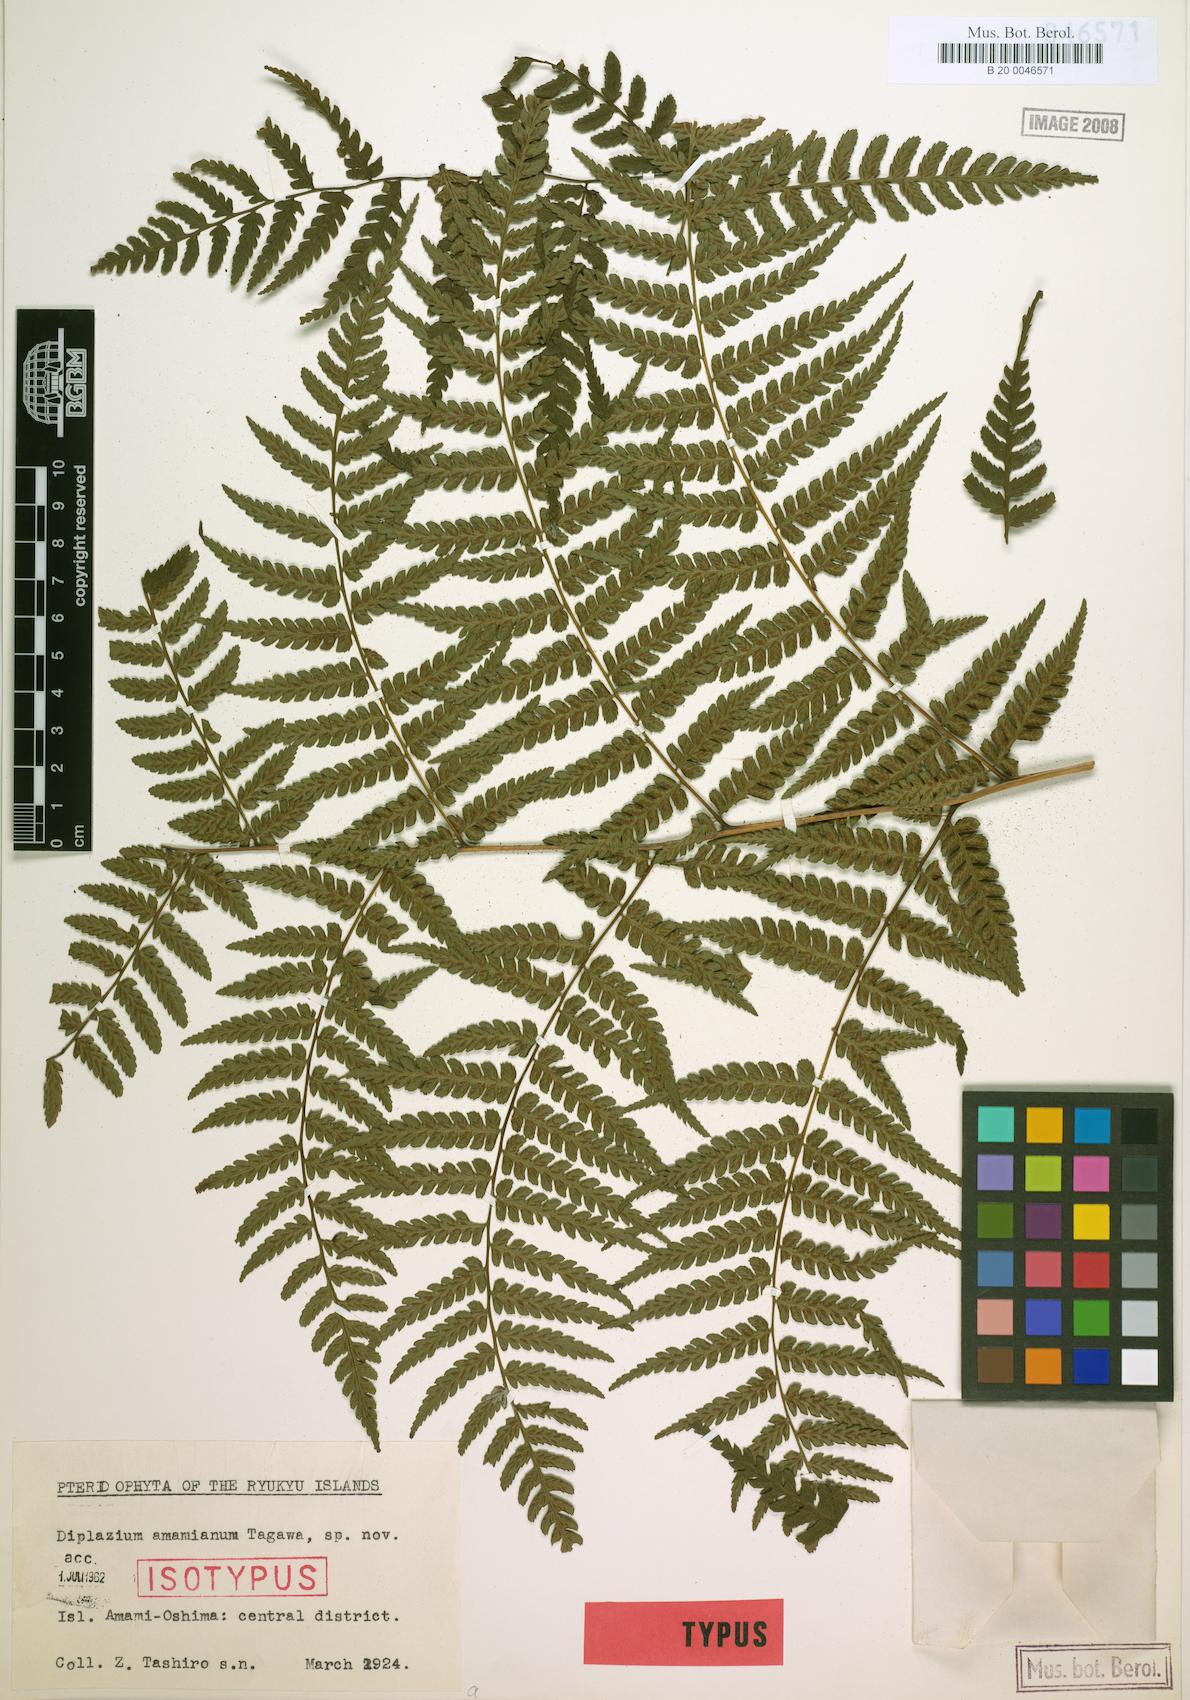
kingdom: Plantae
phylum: Tracheophyta
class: Polypodiopsida
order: Polypodiales
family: Athyriaceae
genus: Diplazium
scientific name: Diplazium laxifrons
